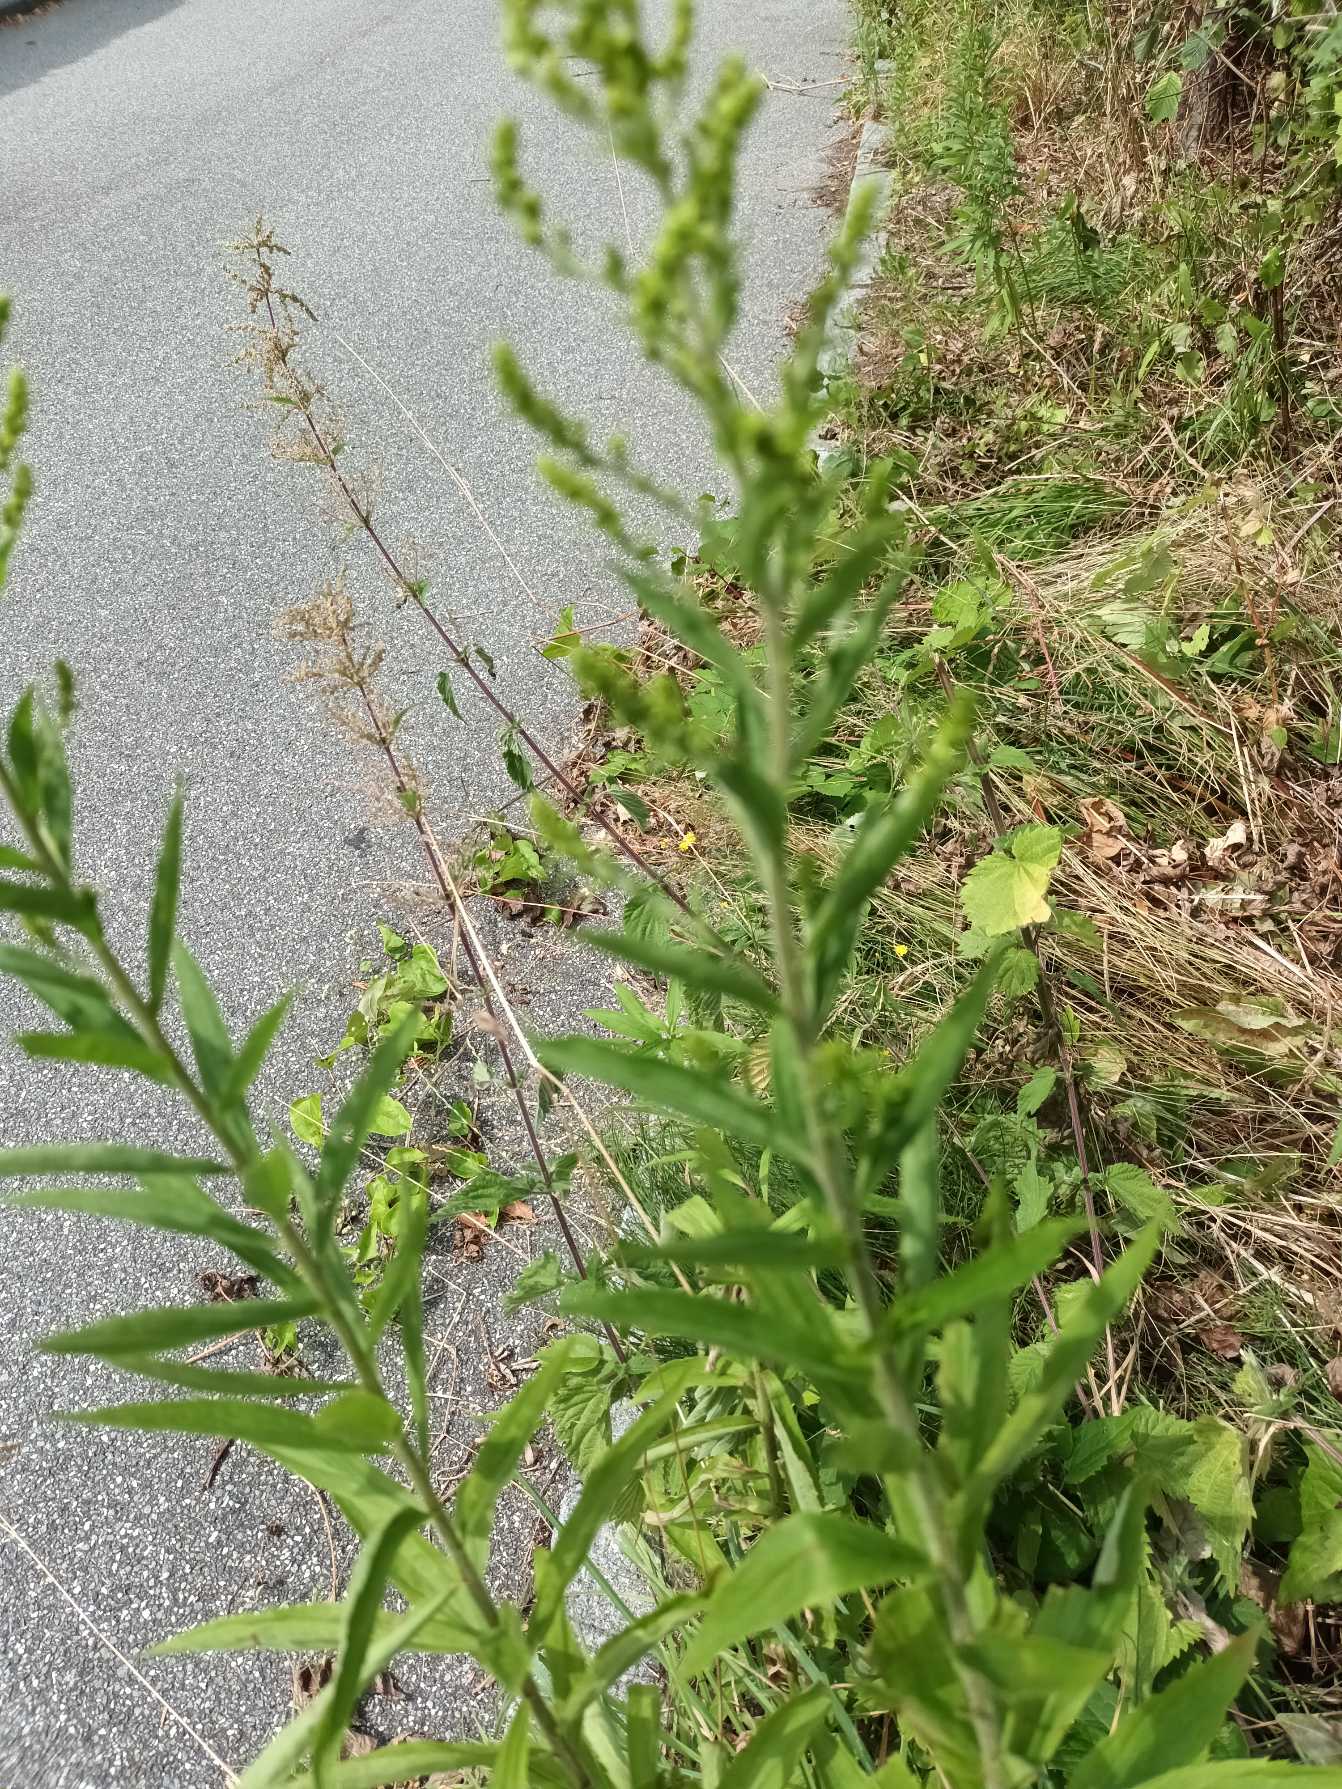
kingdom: Plantae
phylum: Tracheophyta
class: Magnoliopsida
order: Asterales
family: Asteraceae
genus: Solidago
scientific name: Solidago canadensis
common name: Kanadisk gyldenris
